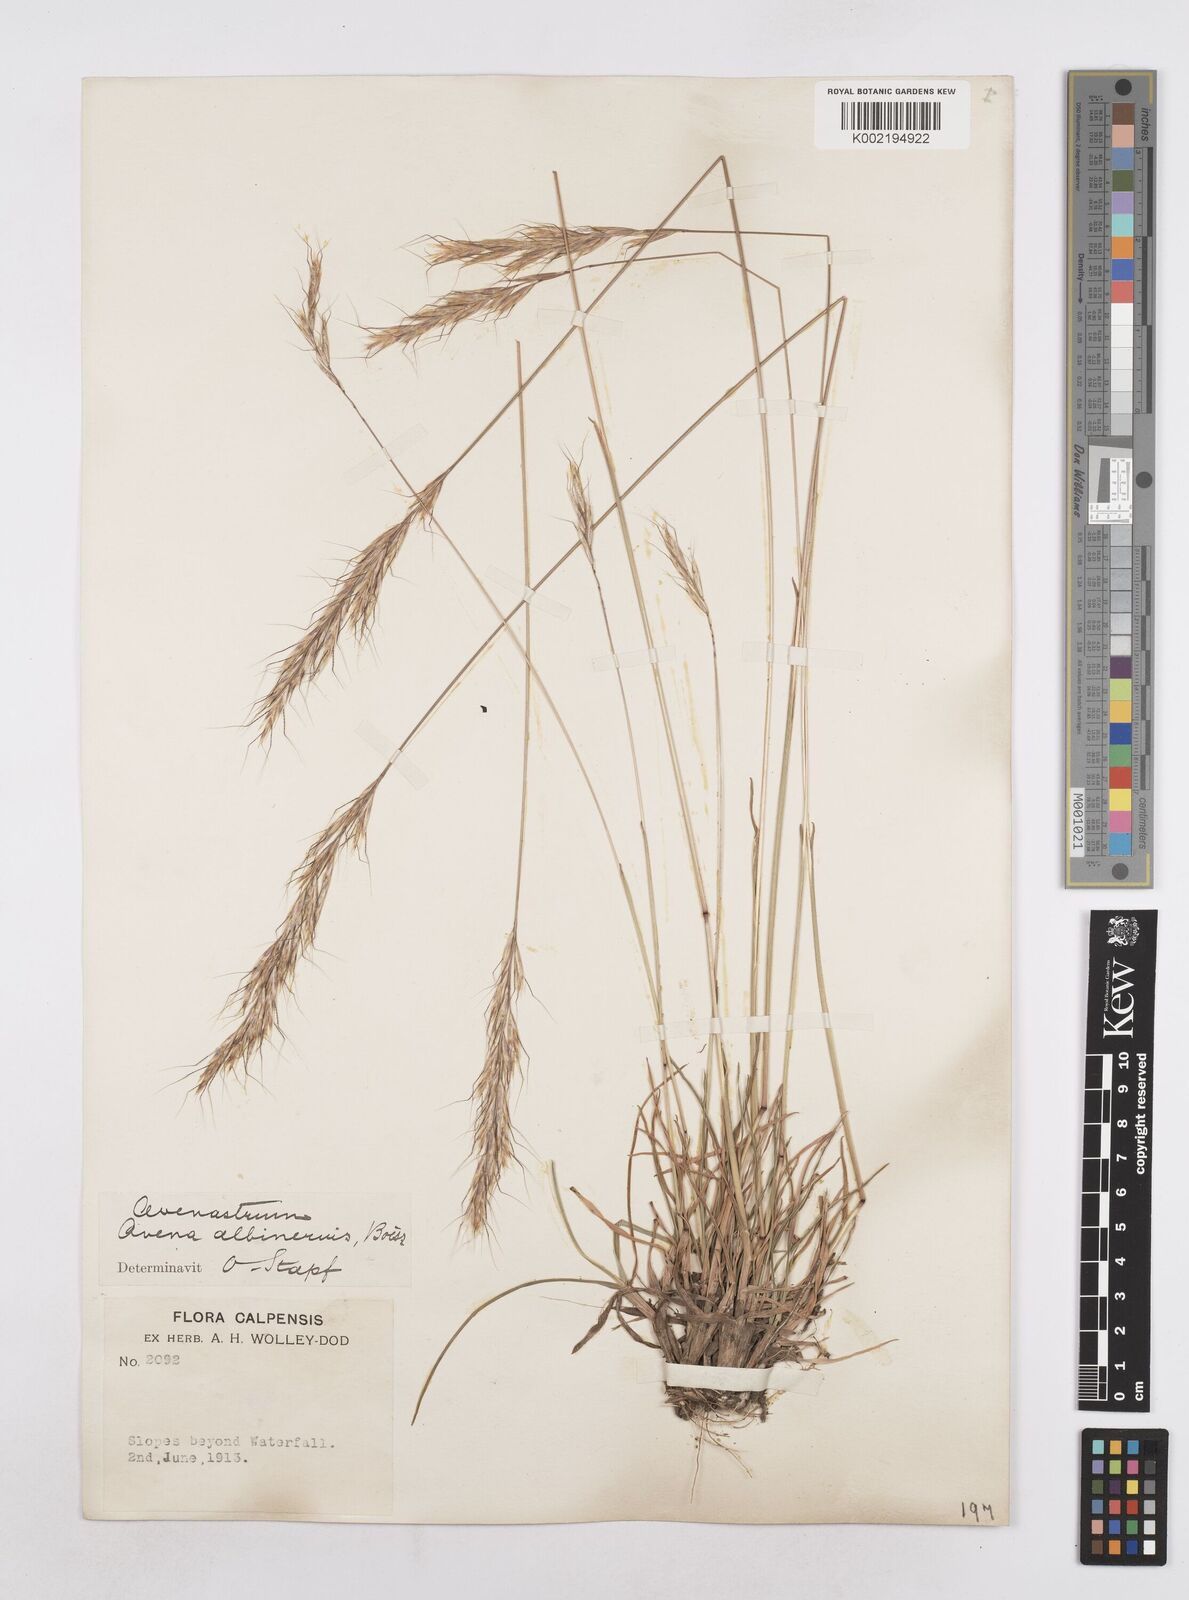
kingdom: Plantae
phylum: Tracheophyta
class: Liliopsida
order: Poales
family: Poaceae
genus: Helictochloa
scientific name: Helictochloa albinervis
